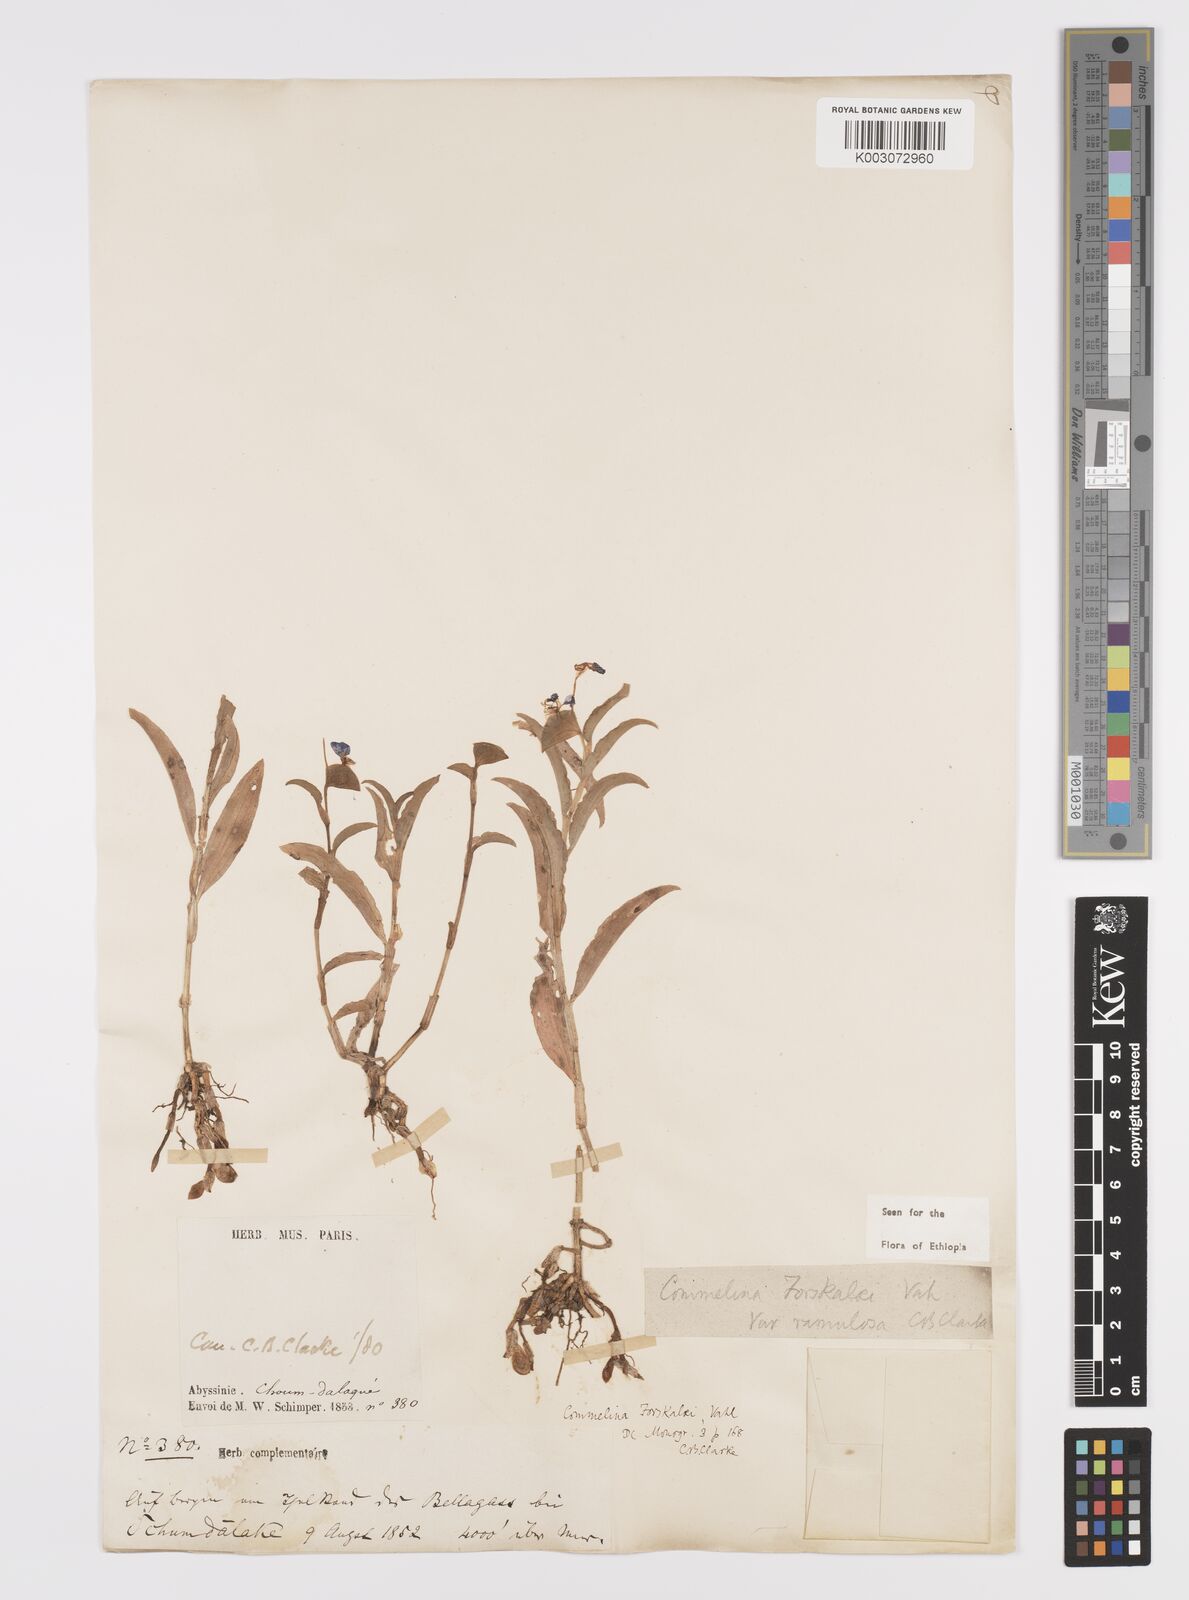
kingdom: Plantae
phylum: Tracheophyta
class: Liliopsida
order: Commelinales
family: Commelinaceae
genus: Commelina
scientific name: Commelina forskaolii
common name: Rat's ear
